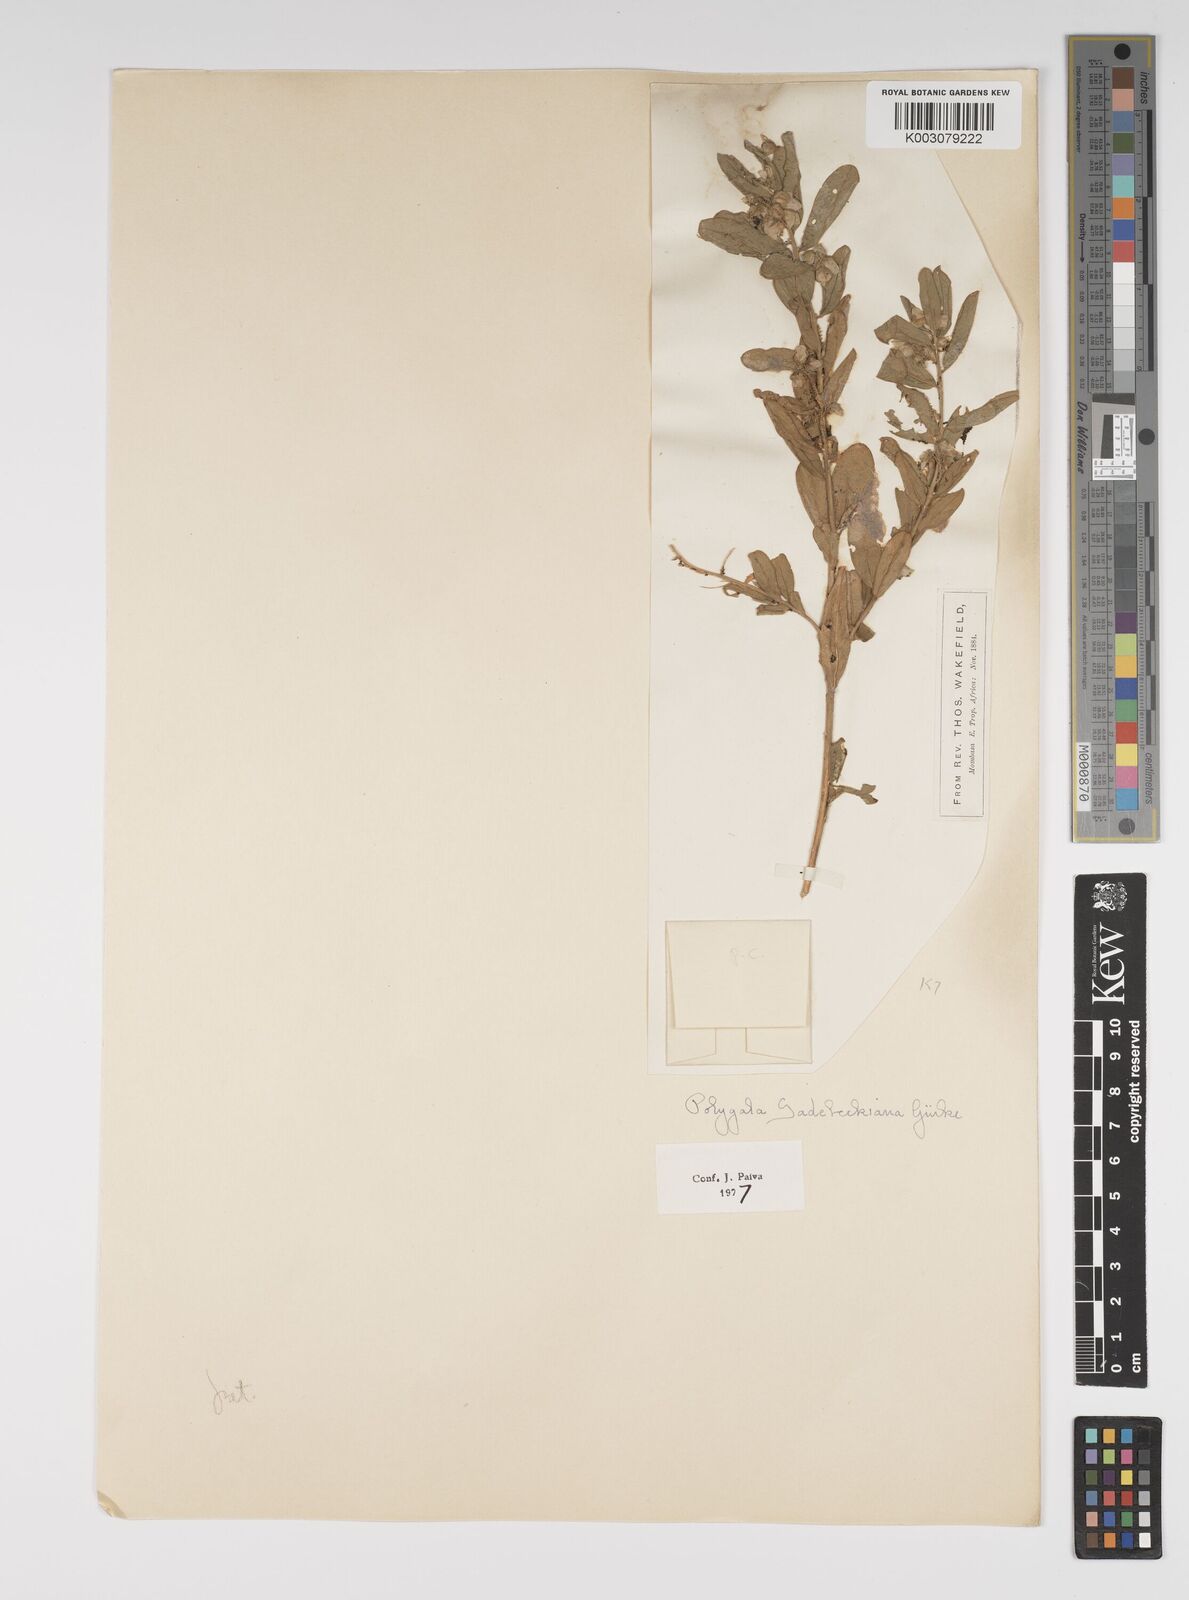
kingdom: Plantae
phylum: Tracheophyta
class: Magnoliopsida
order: Fabales
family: Polygalaceae
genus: Polygala
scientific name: Polygala sadebeckiana
